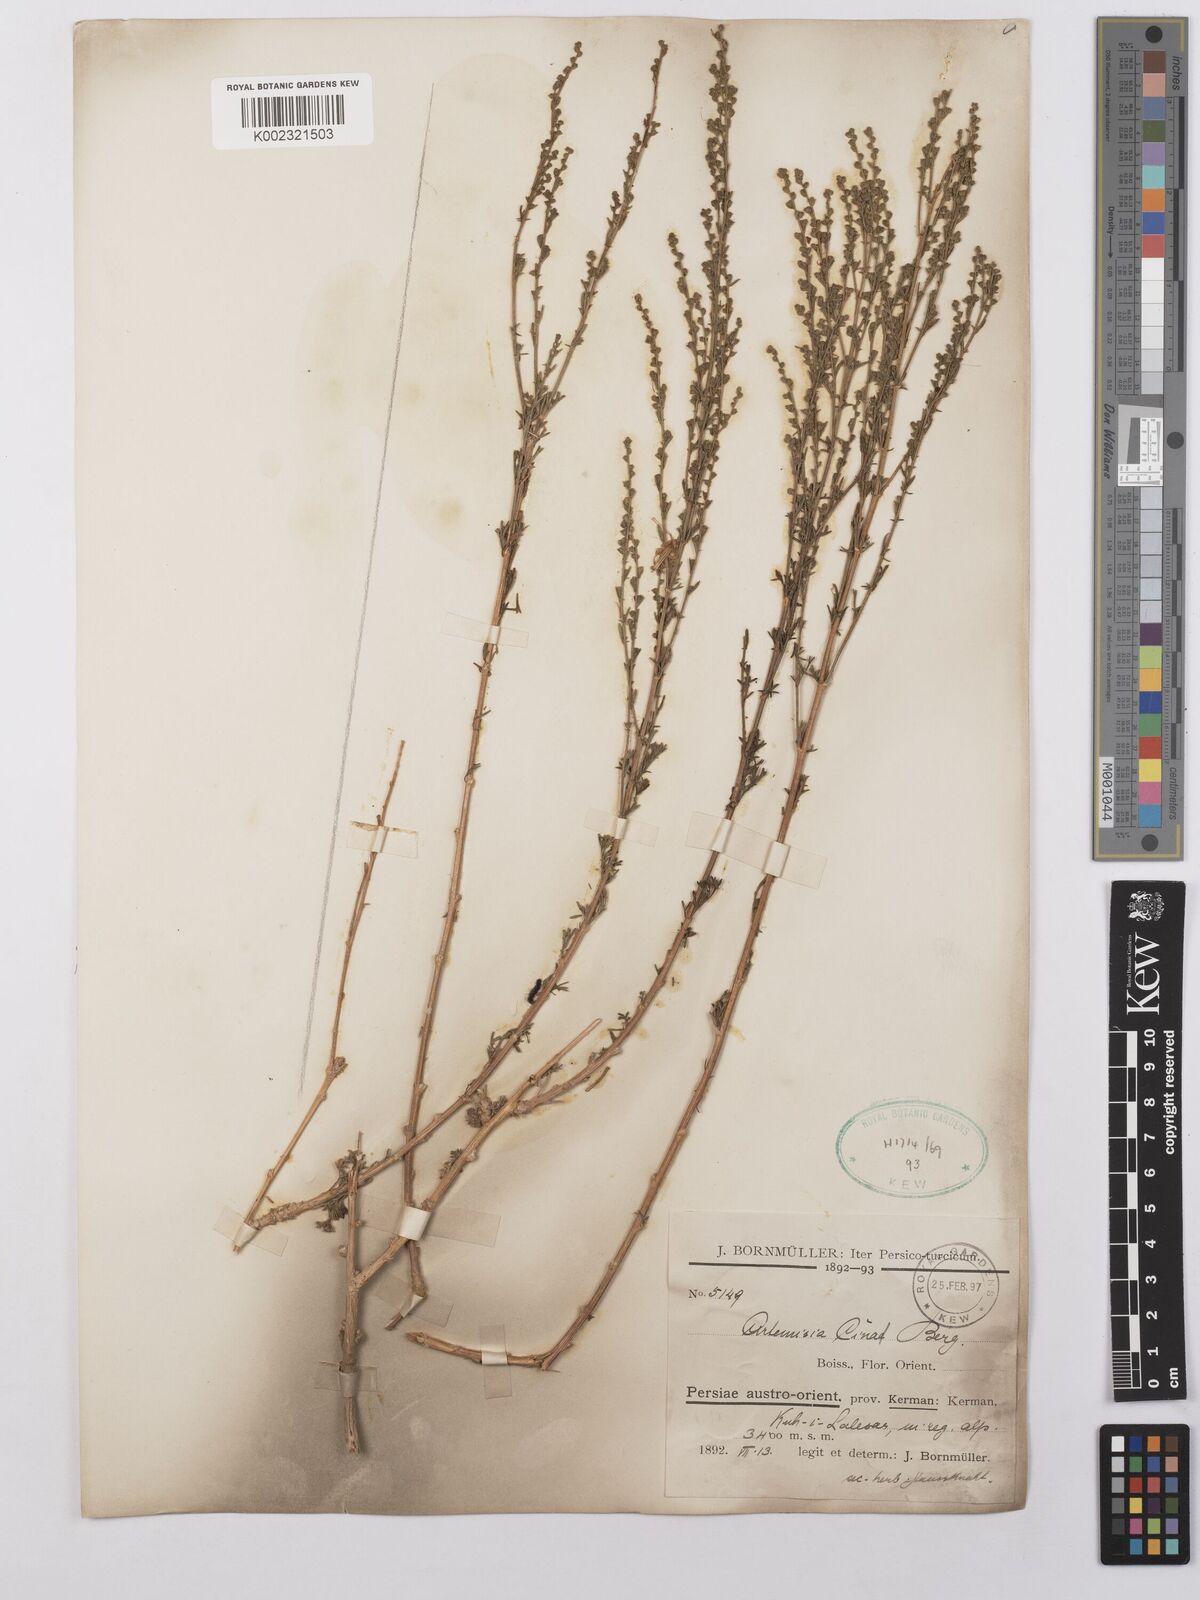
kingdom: Plantae
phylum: Tracheophyta
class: Magnoliopsida
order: Asterales
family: Asteraceae
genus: Artemisia
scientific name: Artemisia cina
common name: Levant wormseed
